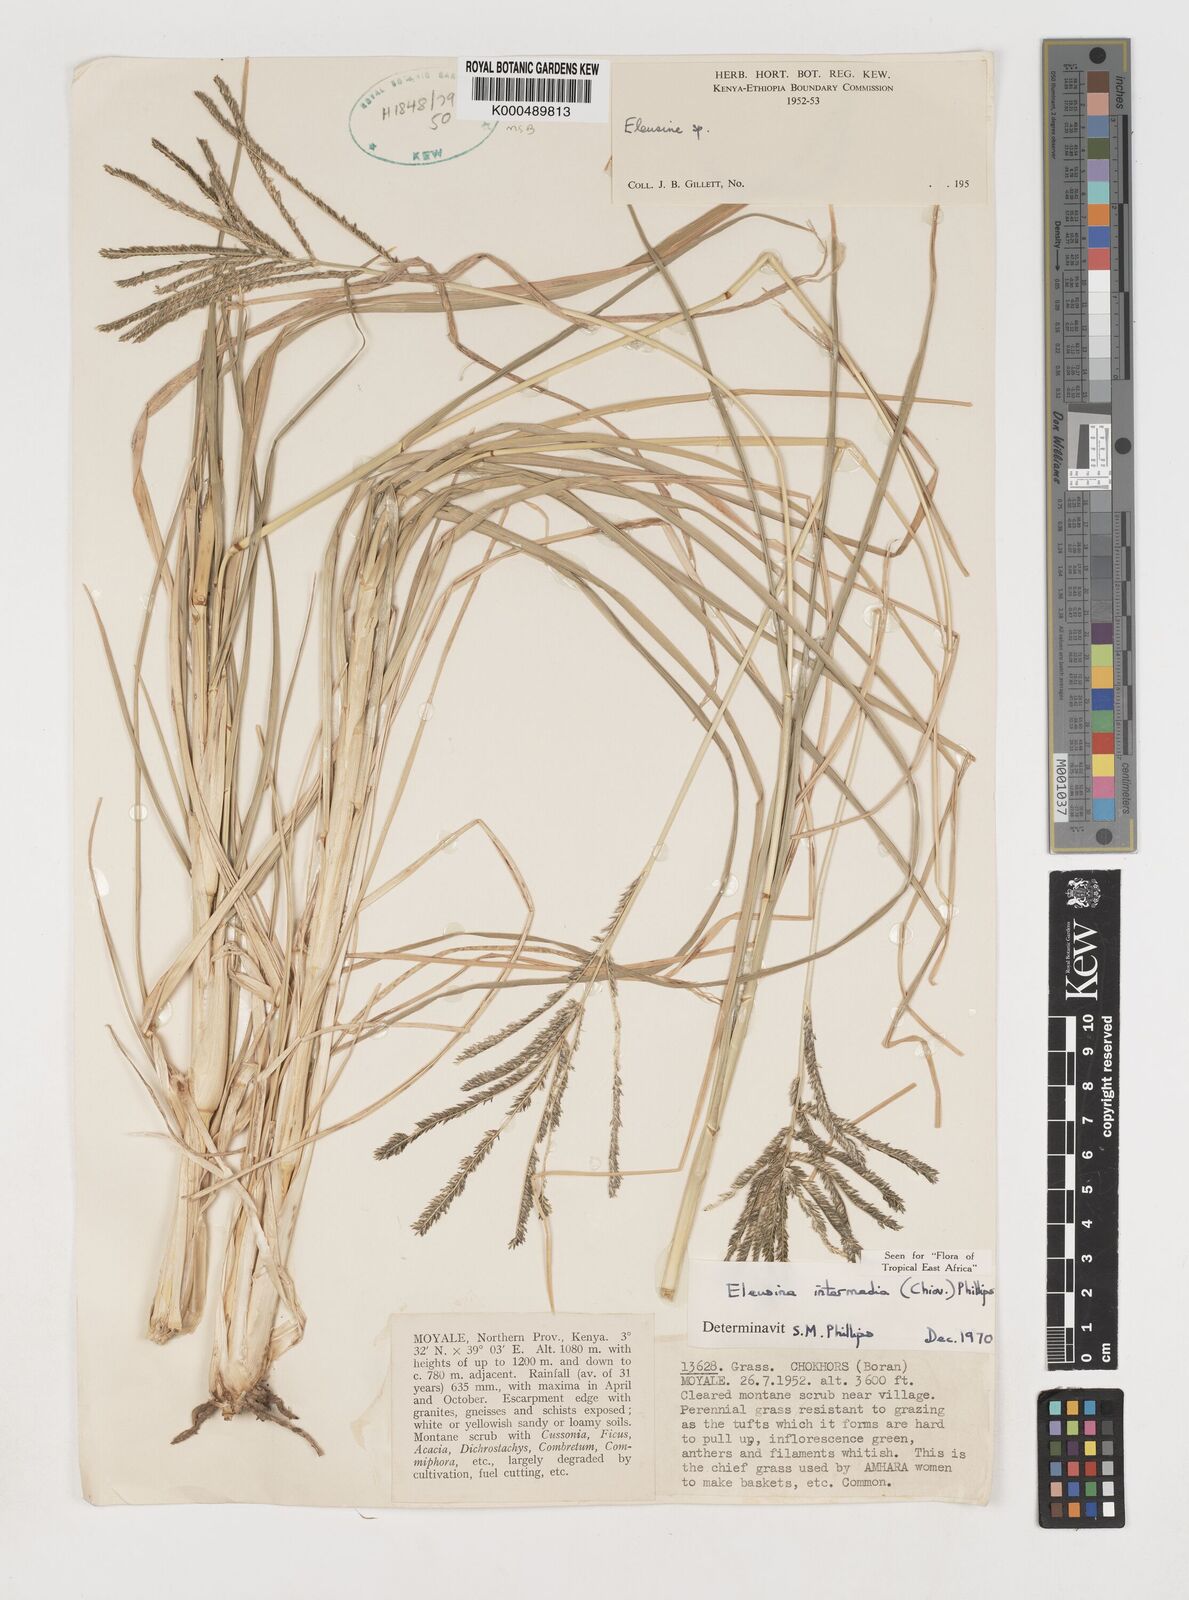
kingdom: Plantae
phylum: Tracheophyta
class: Liliopsida
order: Poales
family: Poaceae
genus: Eleusine
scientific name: Eleusine intermedia
